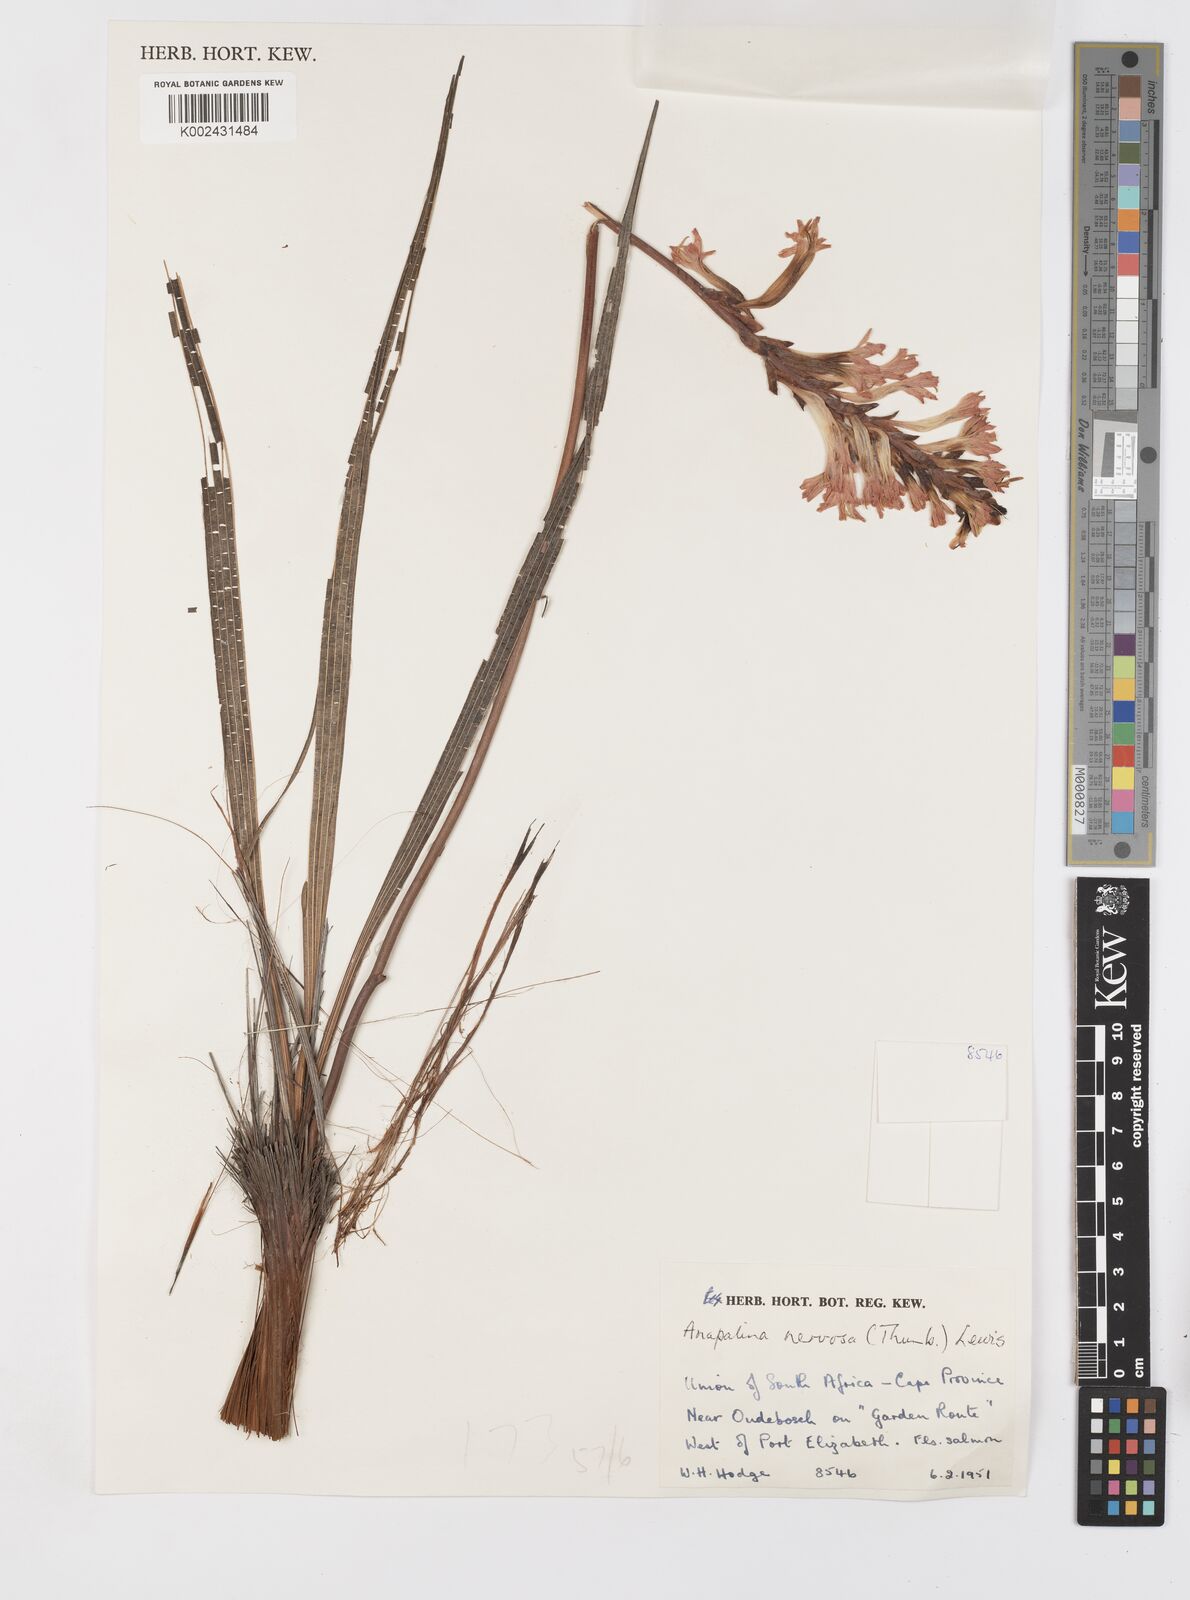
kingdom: Plantae
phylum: Tracheophyta
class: Liliopsida
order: Asparagales
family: Iridaceae
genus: Tritoniopsis
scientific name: Tritoniopsis nervosa
